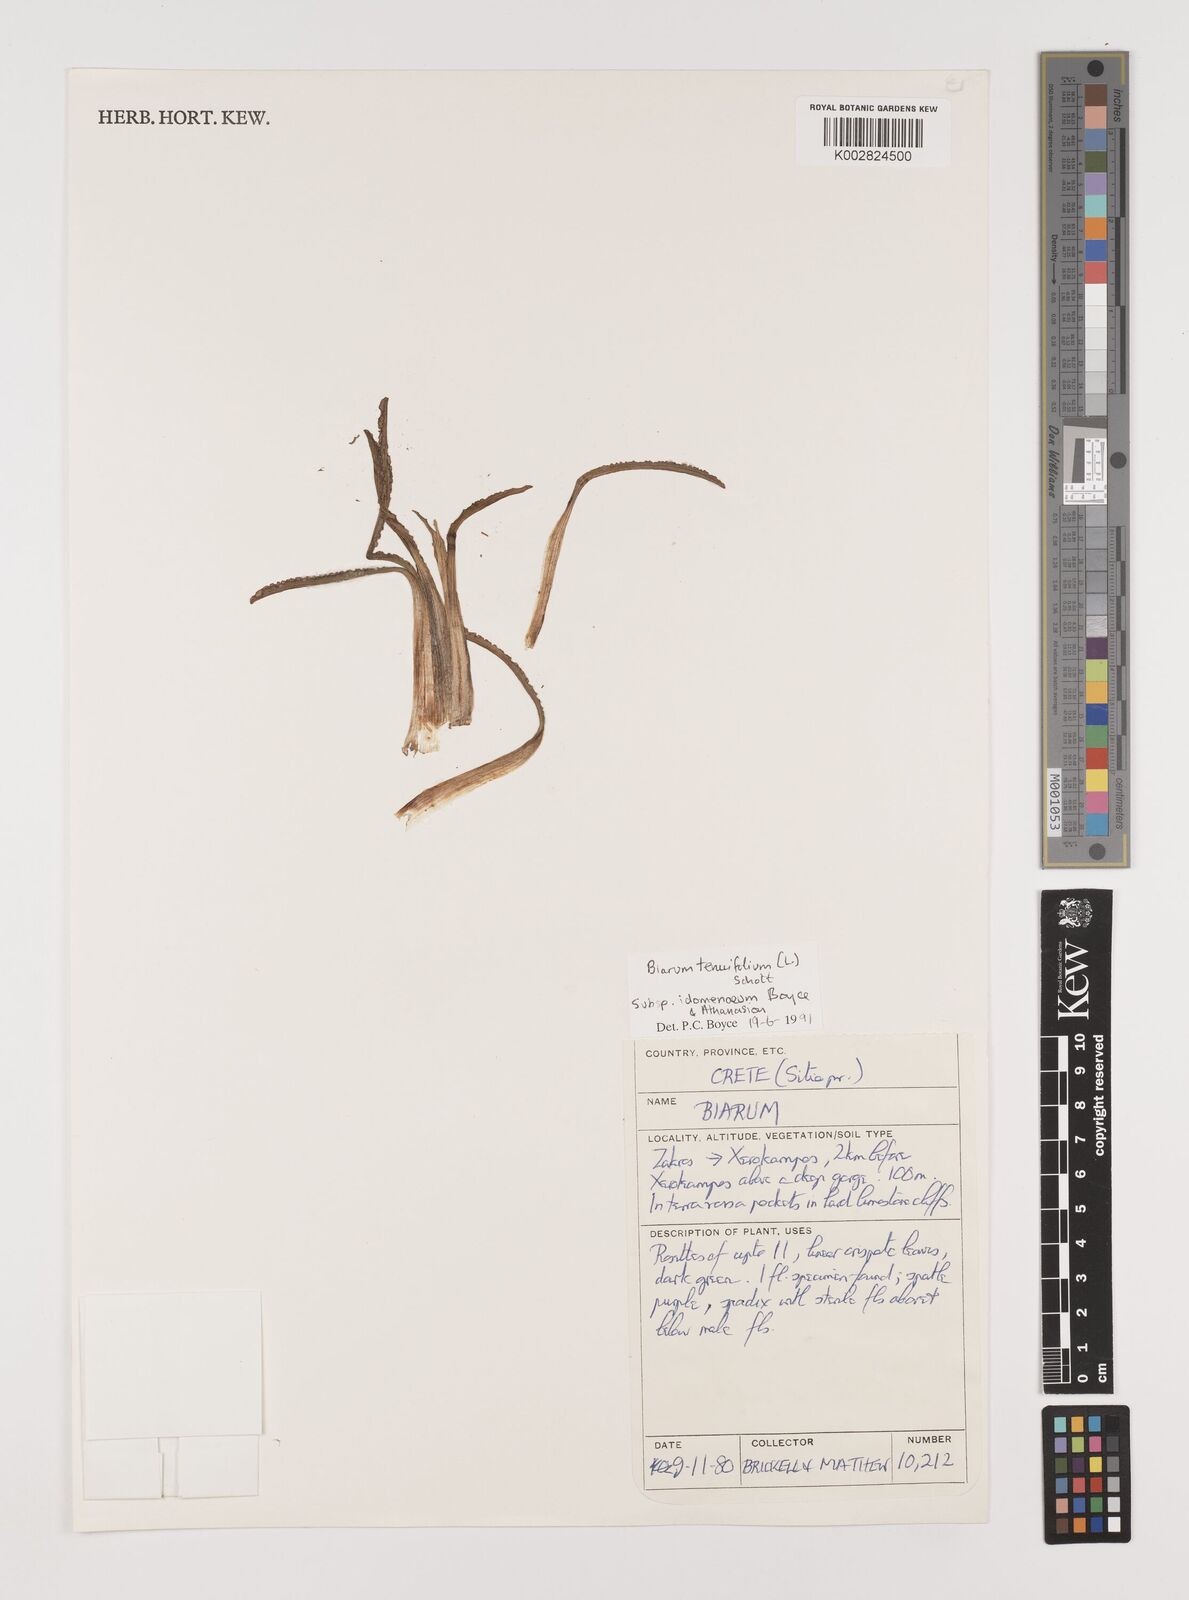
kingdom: Plantae
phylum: Tracheophyta
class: Liliopsida
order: Alismatales
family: Araceae
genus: Biarum
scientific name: Biarum tenuifolium
